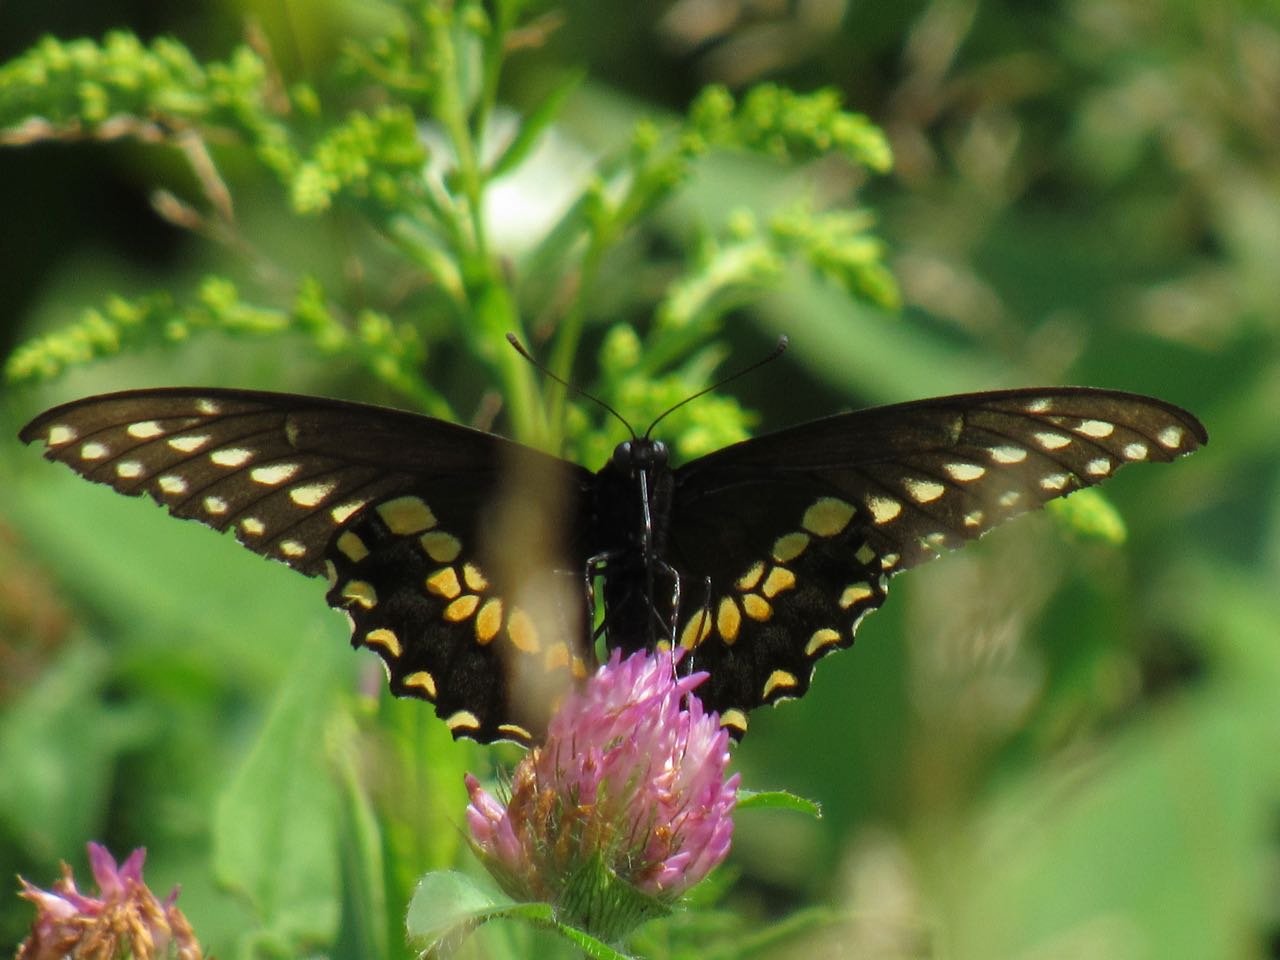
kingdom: Animalia
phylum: Arthropoda
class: Insecta
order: Lepidoptera
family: Papilionidae
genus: Papilio
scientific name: Papilio polyxenes
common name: Black Swallowtail
